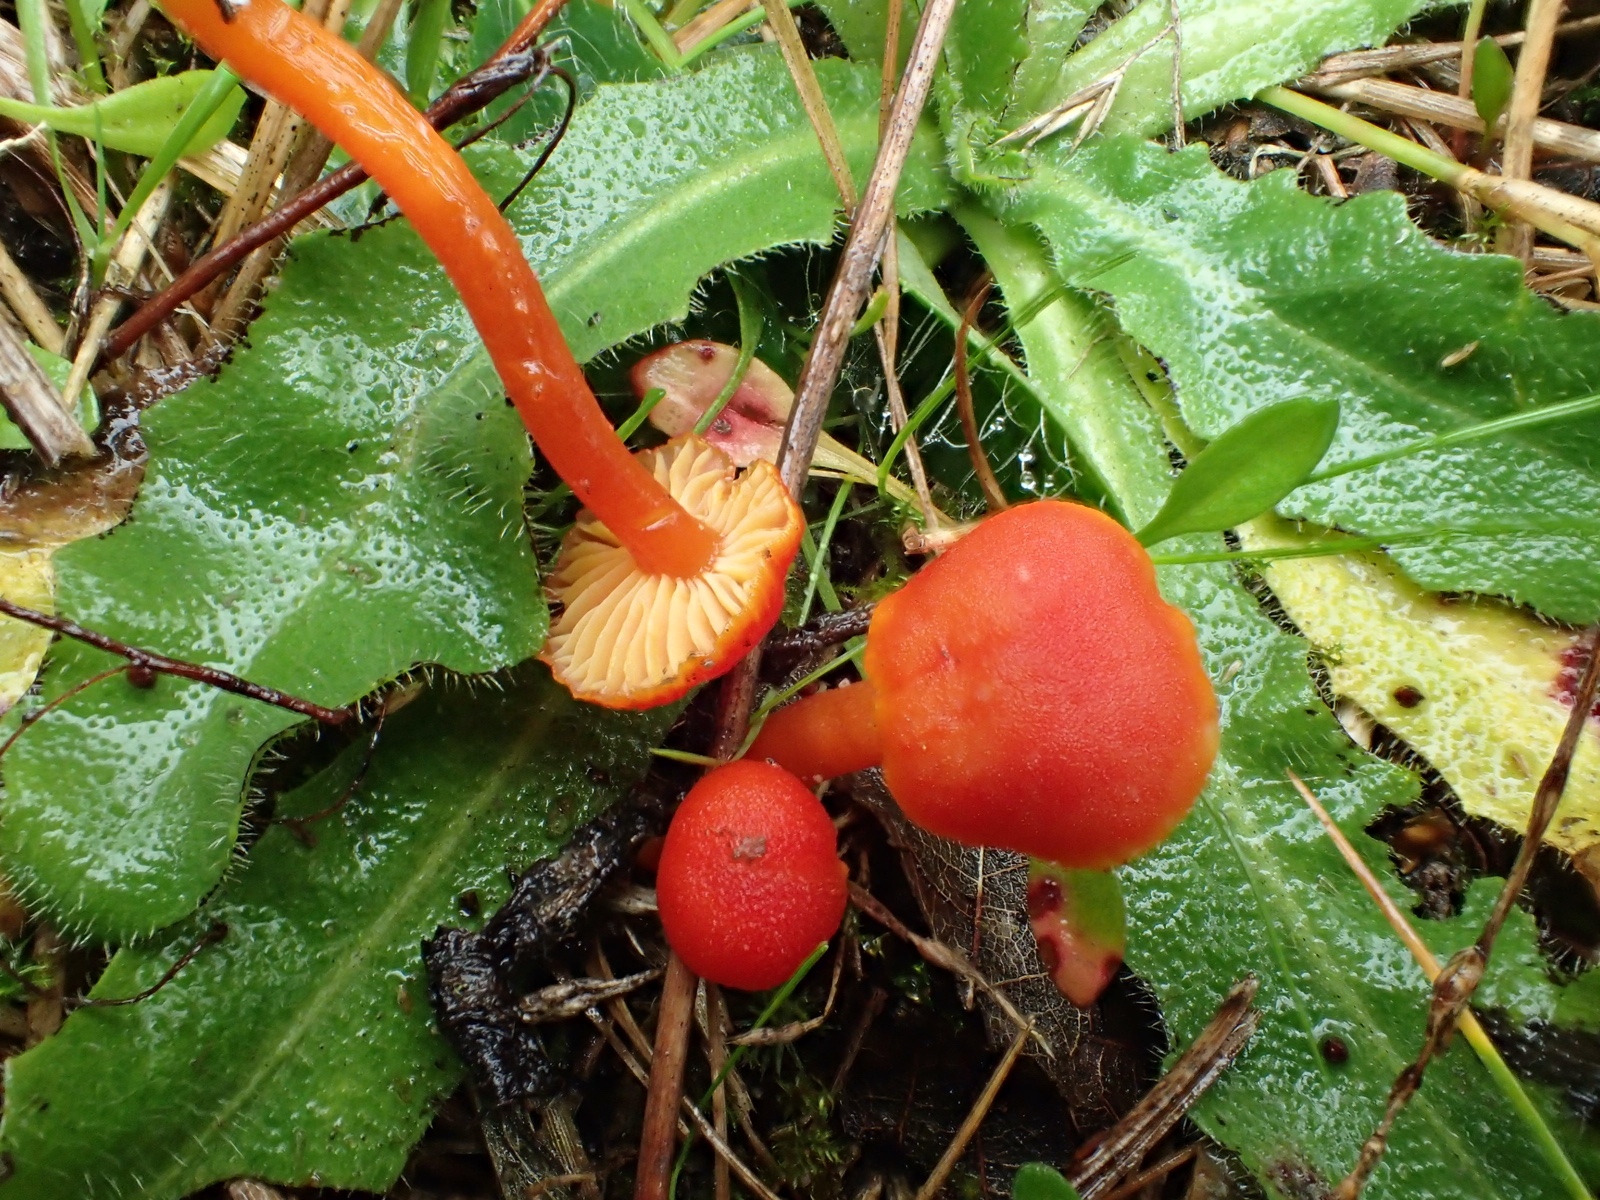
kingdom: Fungi
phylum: Basidiomycota
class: Agaricomycetes
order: Agaricales
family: Hygrophoraceae
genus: Hygrocybe
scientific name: Hygrocybe miniata
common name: mønje-vokshat
